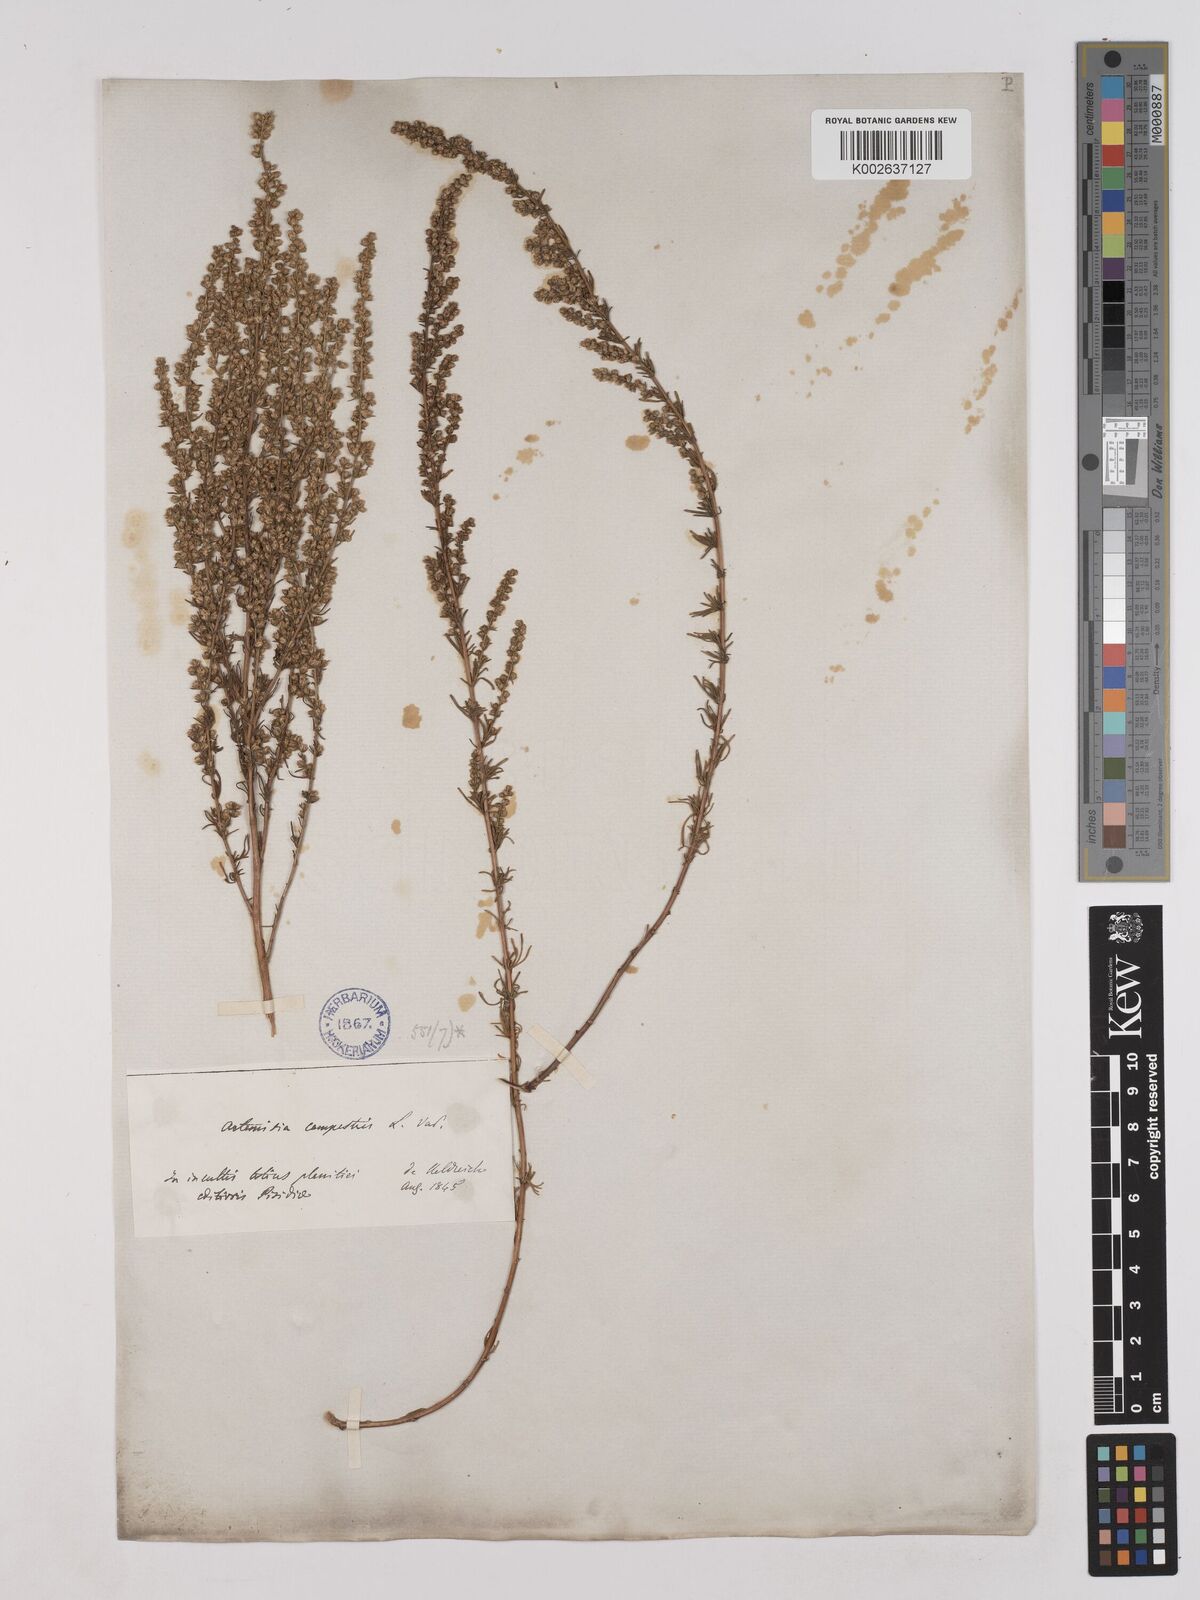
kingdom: Plantae
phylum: Tracheophyta
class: Magnoliopsida
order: Asterales
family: Asteraceae
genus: Artemisia
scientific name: Artemisia campestris
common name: Field wormwood
